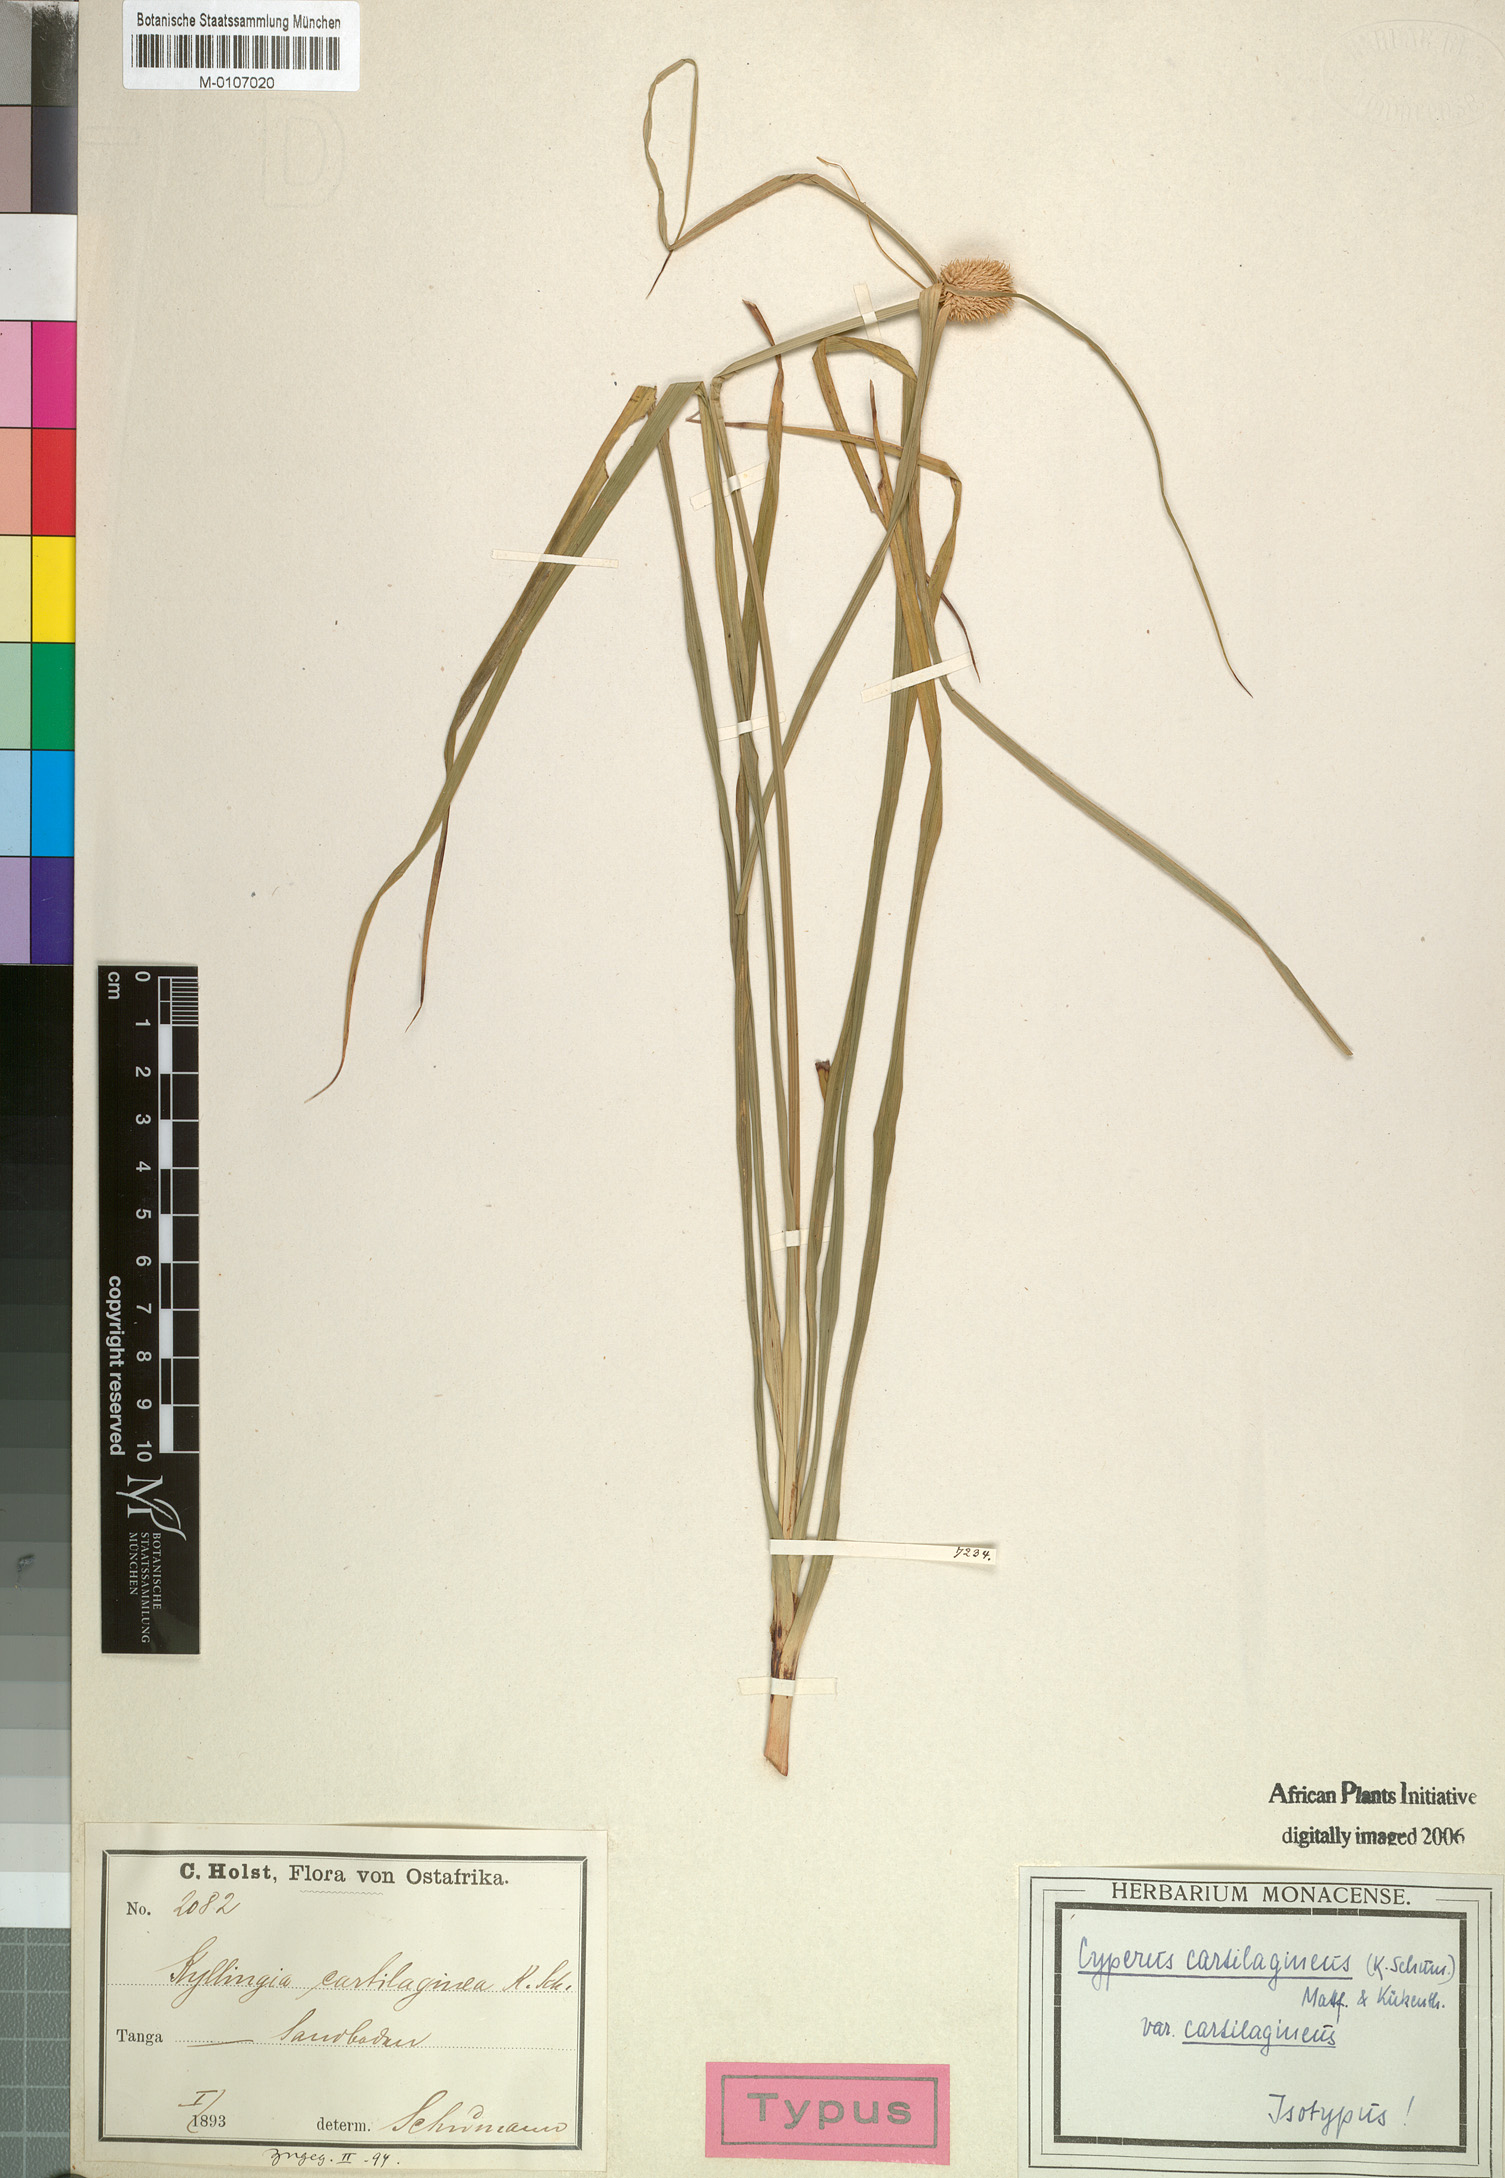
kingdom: Plantae
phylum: Tracheophyta
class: Liliopsida
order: Poales
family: Cyperaceae
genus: Cyperus
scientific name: Cyperus cartilagineus
